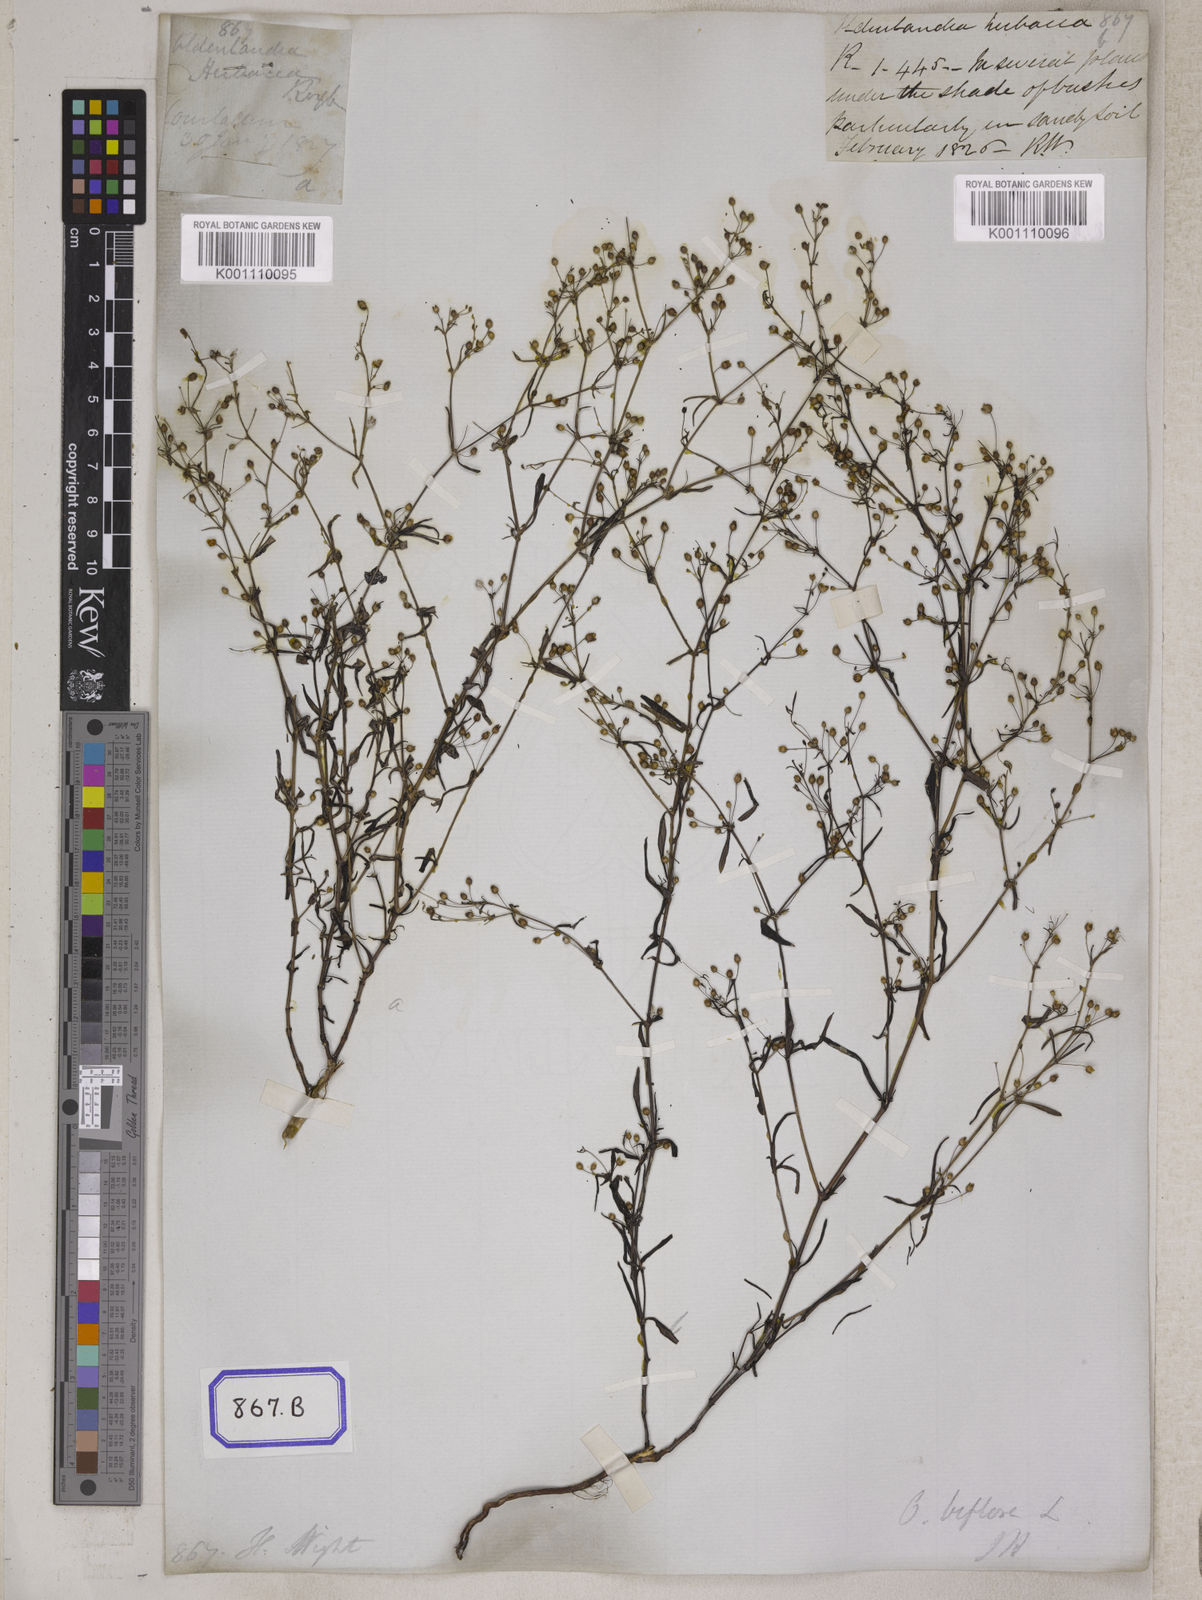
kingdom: Plantae
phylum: Tracheophyta
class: Magnoliopsida
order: Gentianales
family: Rubiaceae
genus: Hedyotis
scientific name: Hedyotis
